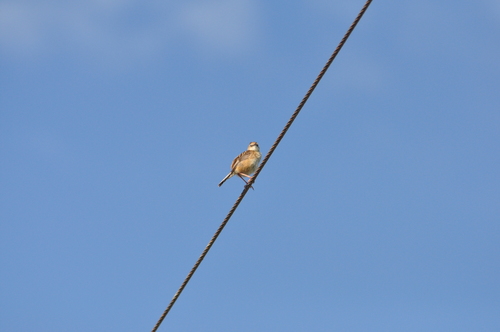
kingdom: Animalia
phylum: Chordata
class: Aves
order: Passeriformes
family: Cisticolidae
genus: Cisticola
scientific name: Cisticola juncidis
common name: Zitting cisticola
